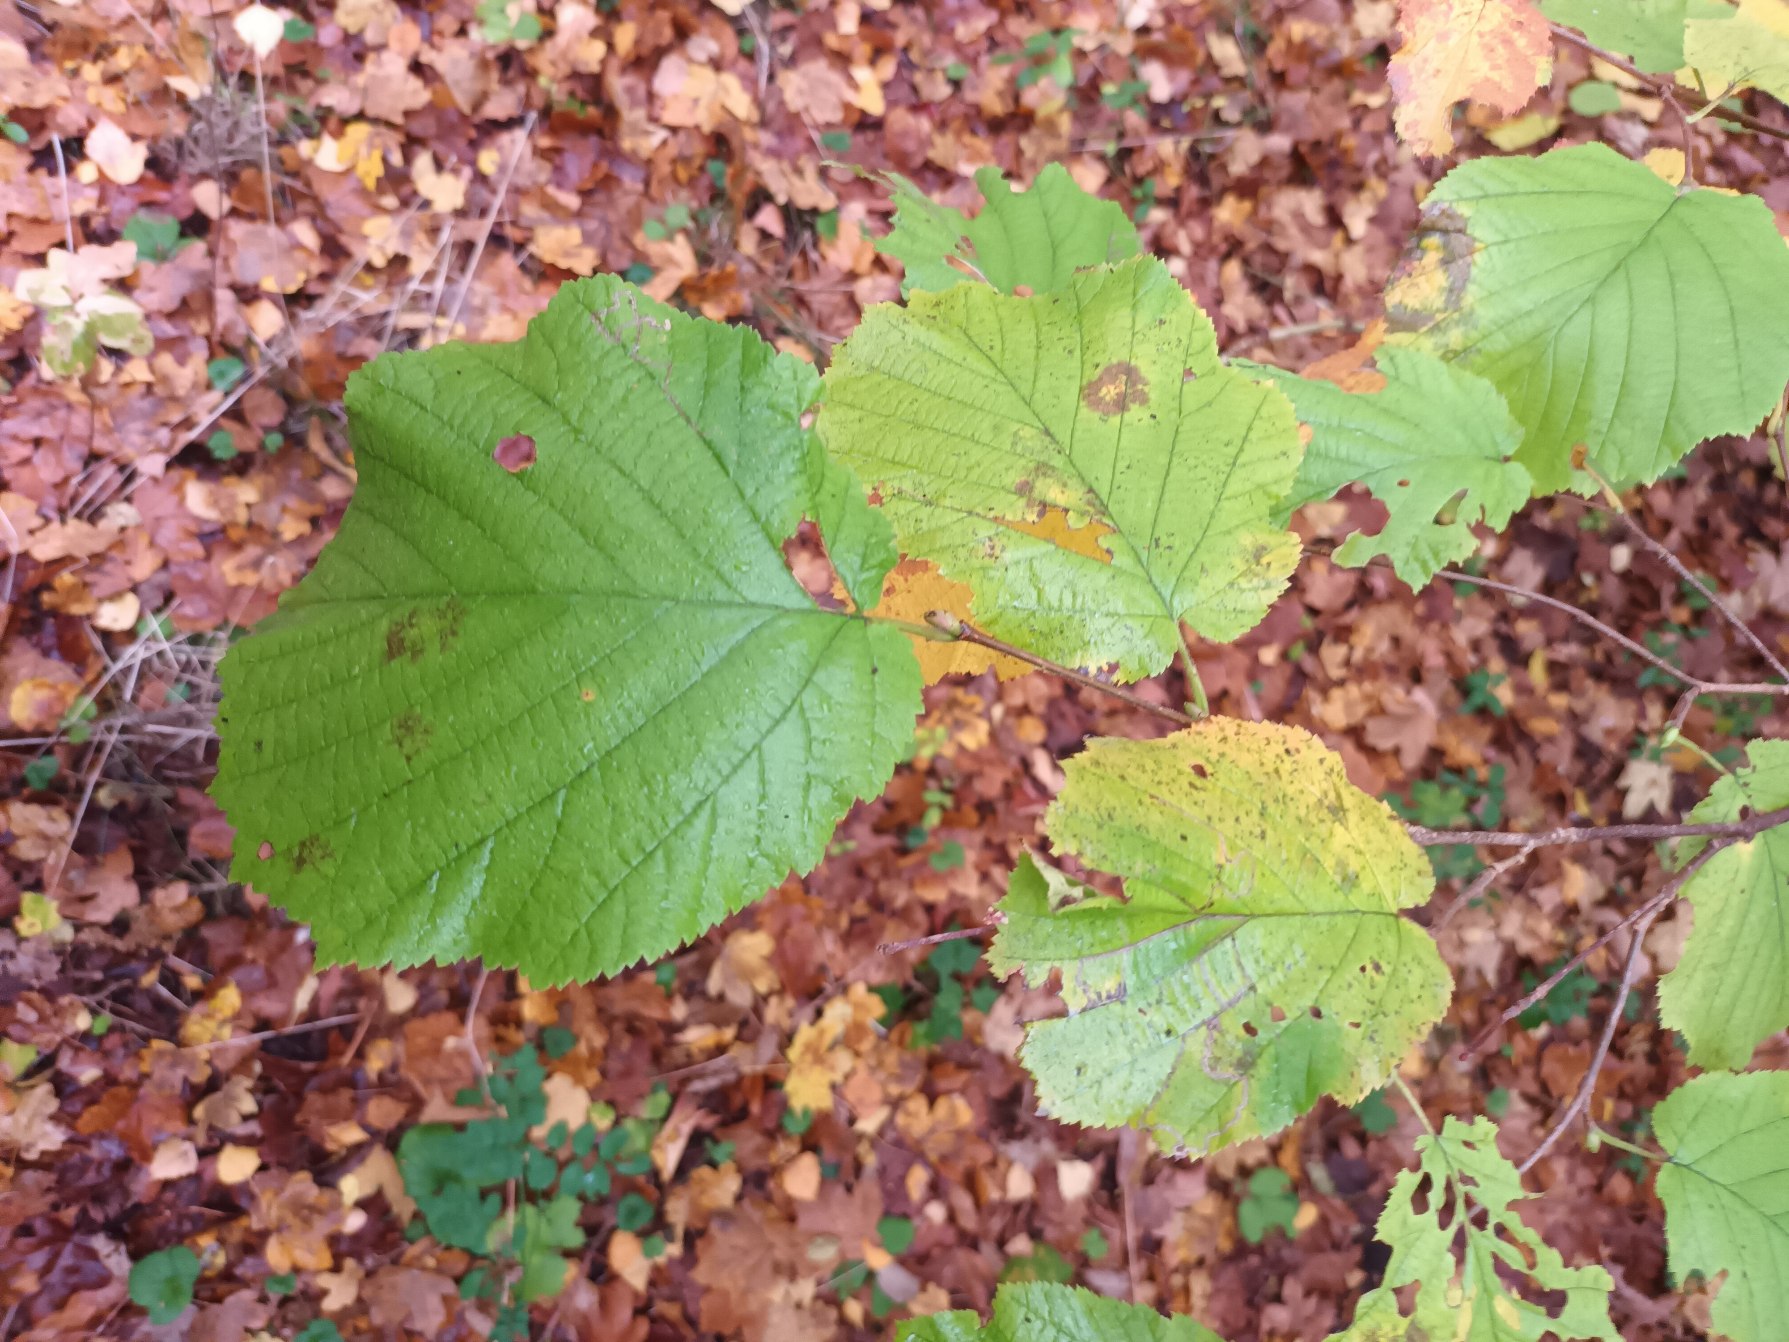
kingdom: Plantae
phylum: Tracheophyta
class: Magnoliopsida
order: Fagales
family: Betulaceae
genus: Corylus
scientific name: Corylus avellana
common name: Hassel
